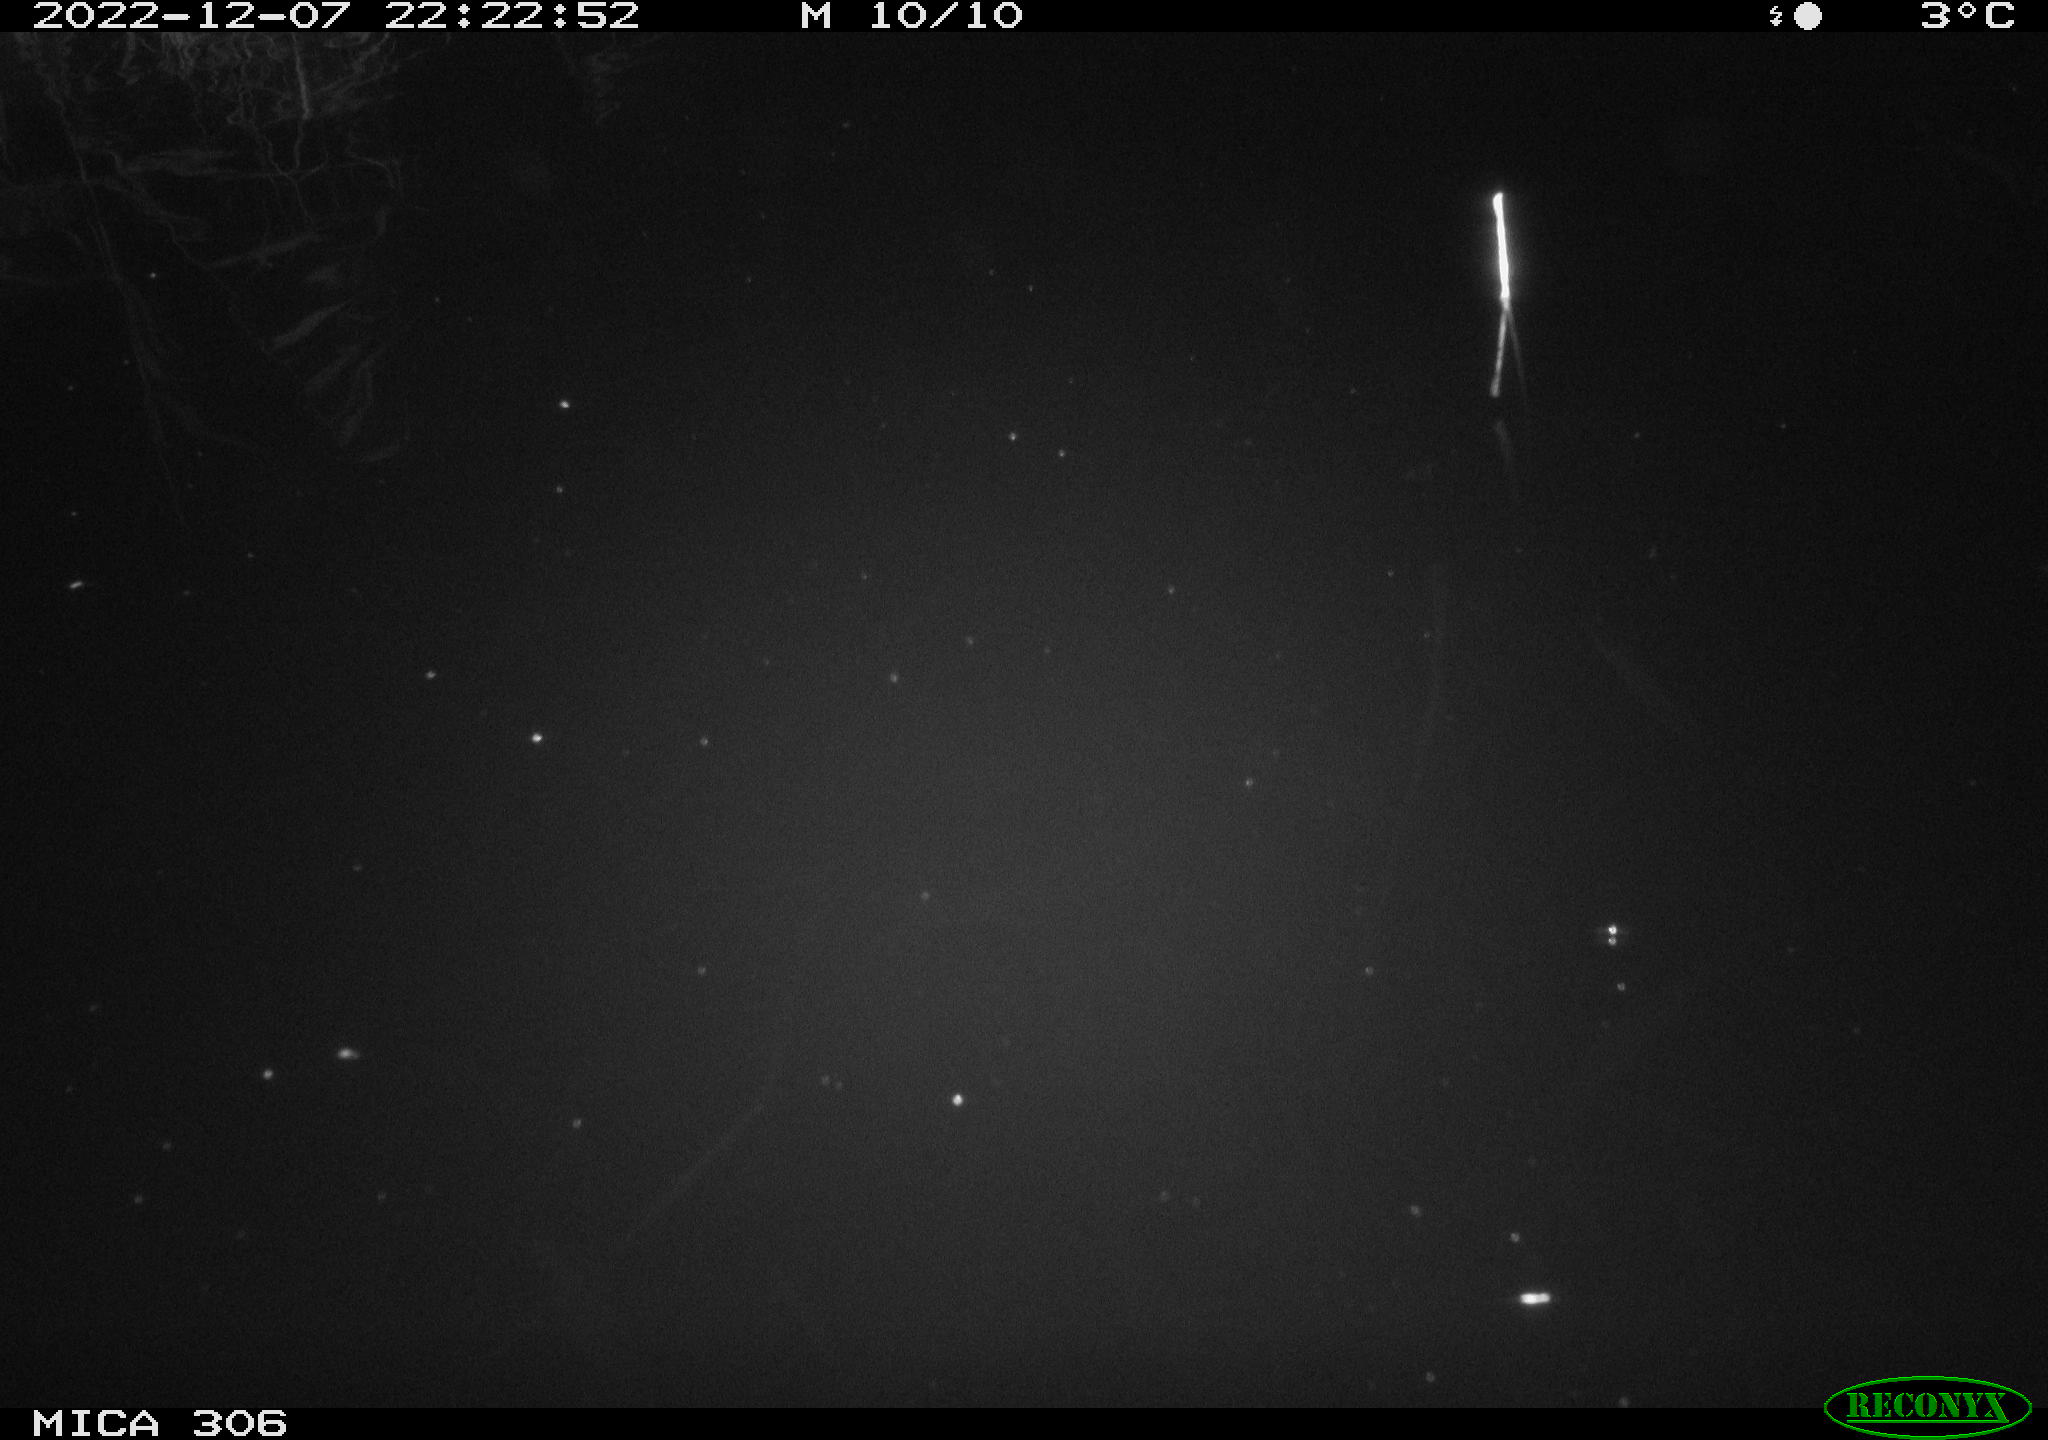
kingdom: Animalia
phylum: Chordata
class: Mammalia
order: Rodentia
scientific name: Rodentia
